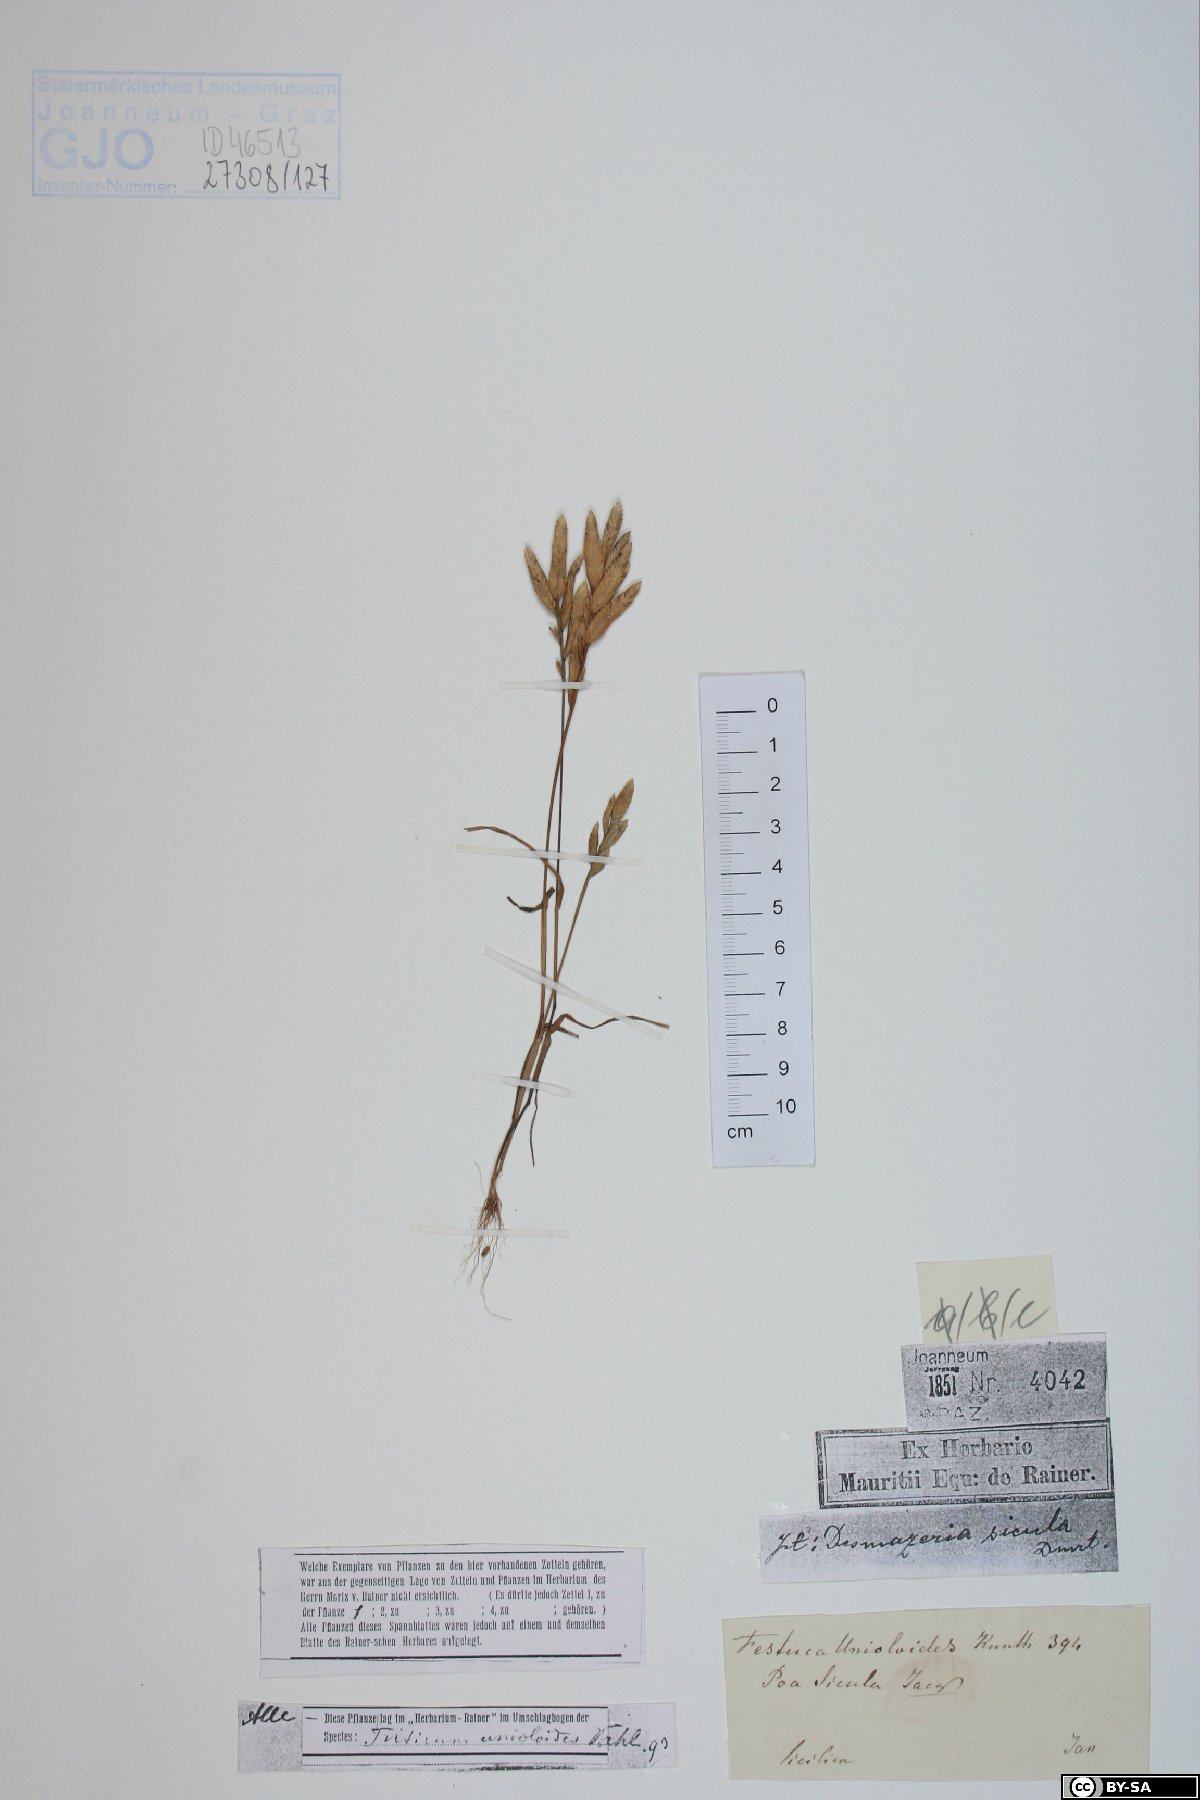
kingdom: Plantae
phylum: Tracheophyta
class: Liliopsida
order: Poales
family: Poaceae
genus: Bromus
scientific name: Bromus catharticus
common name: Rescuegrass
